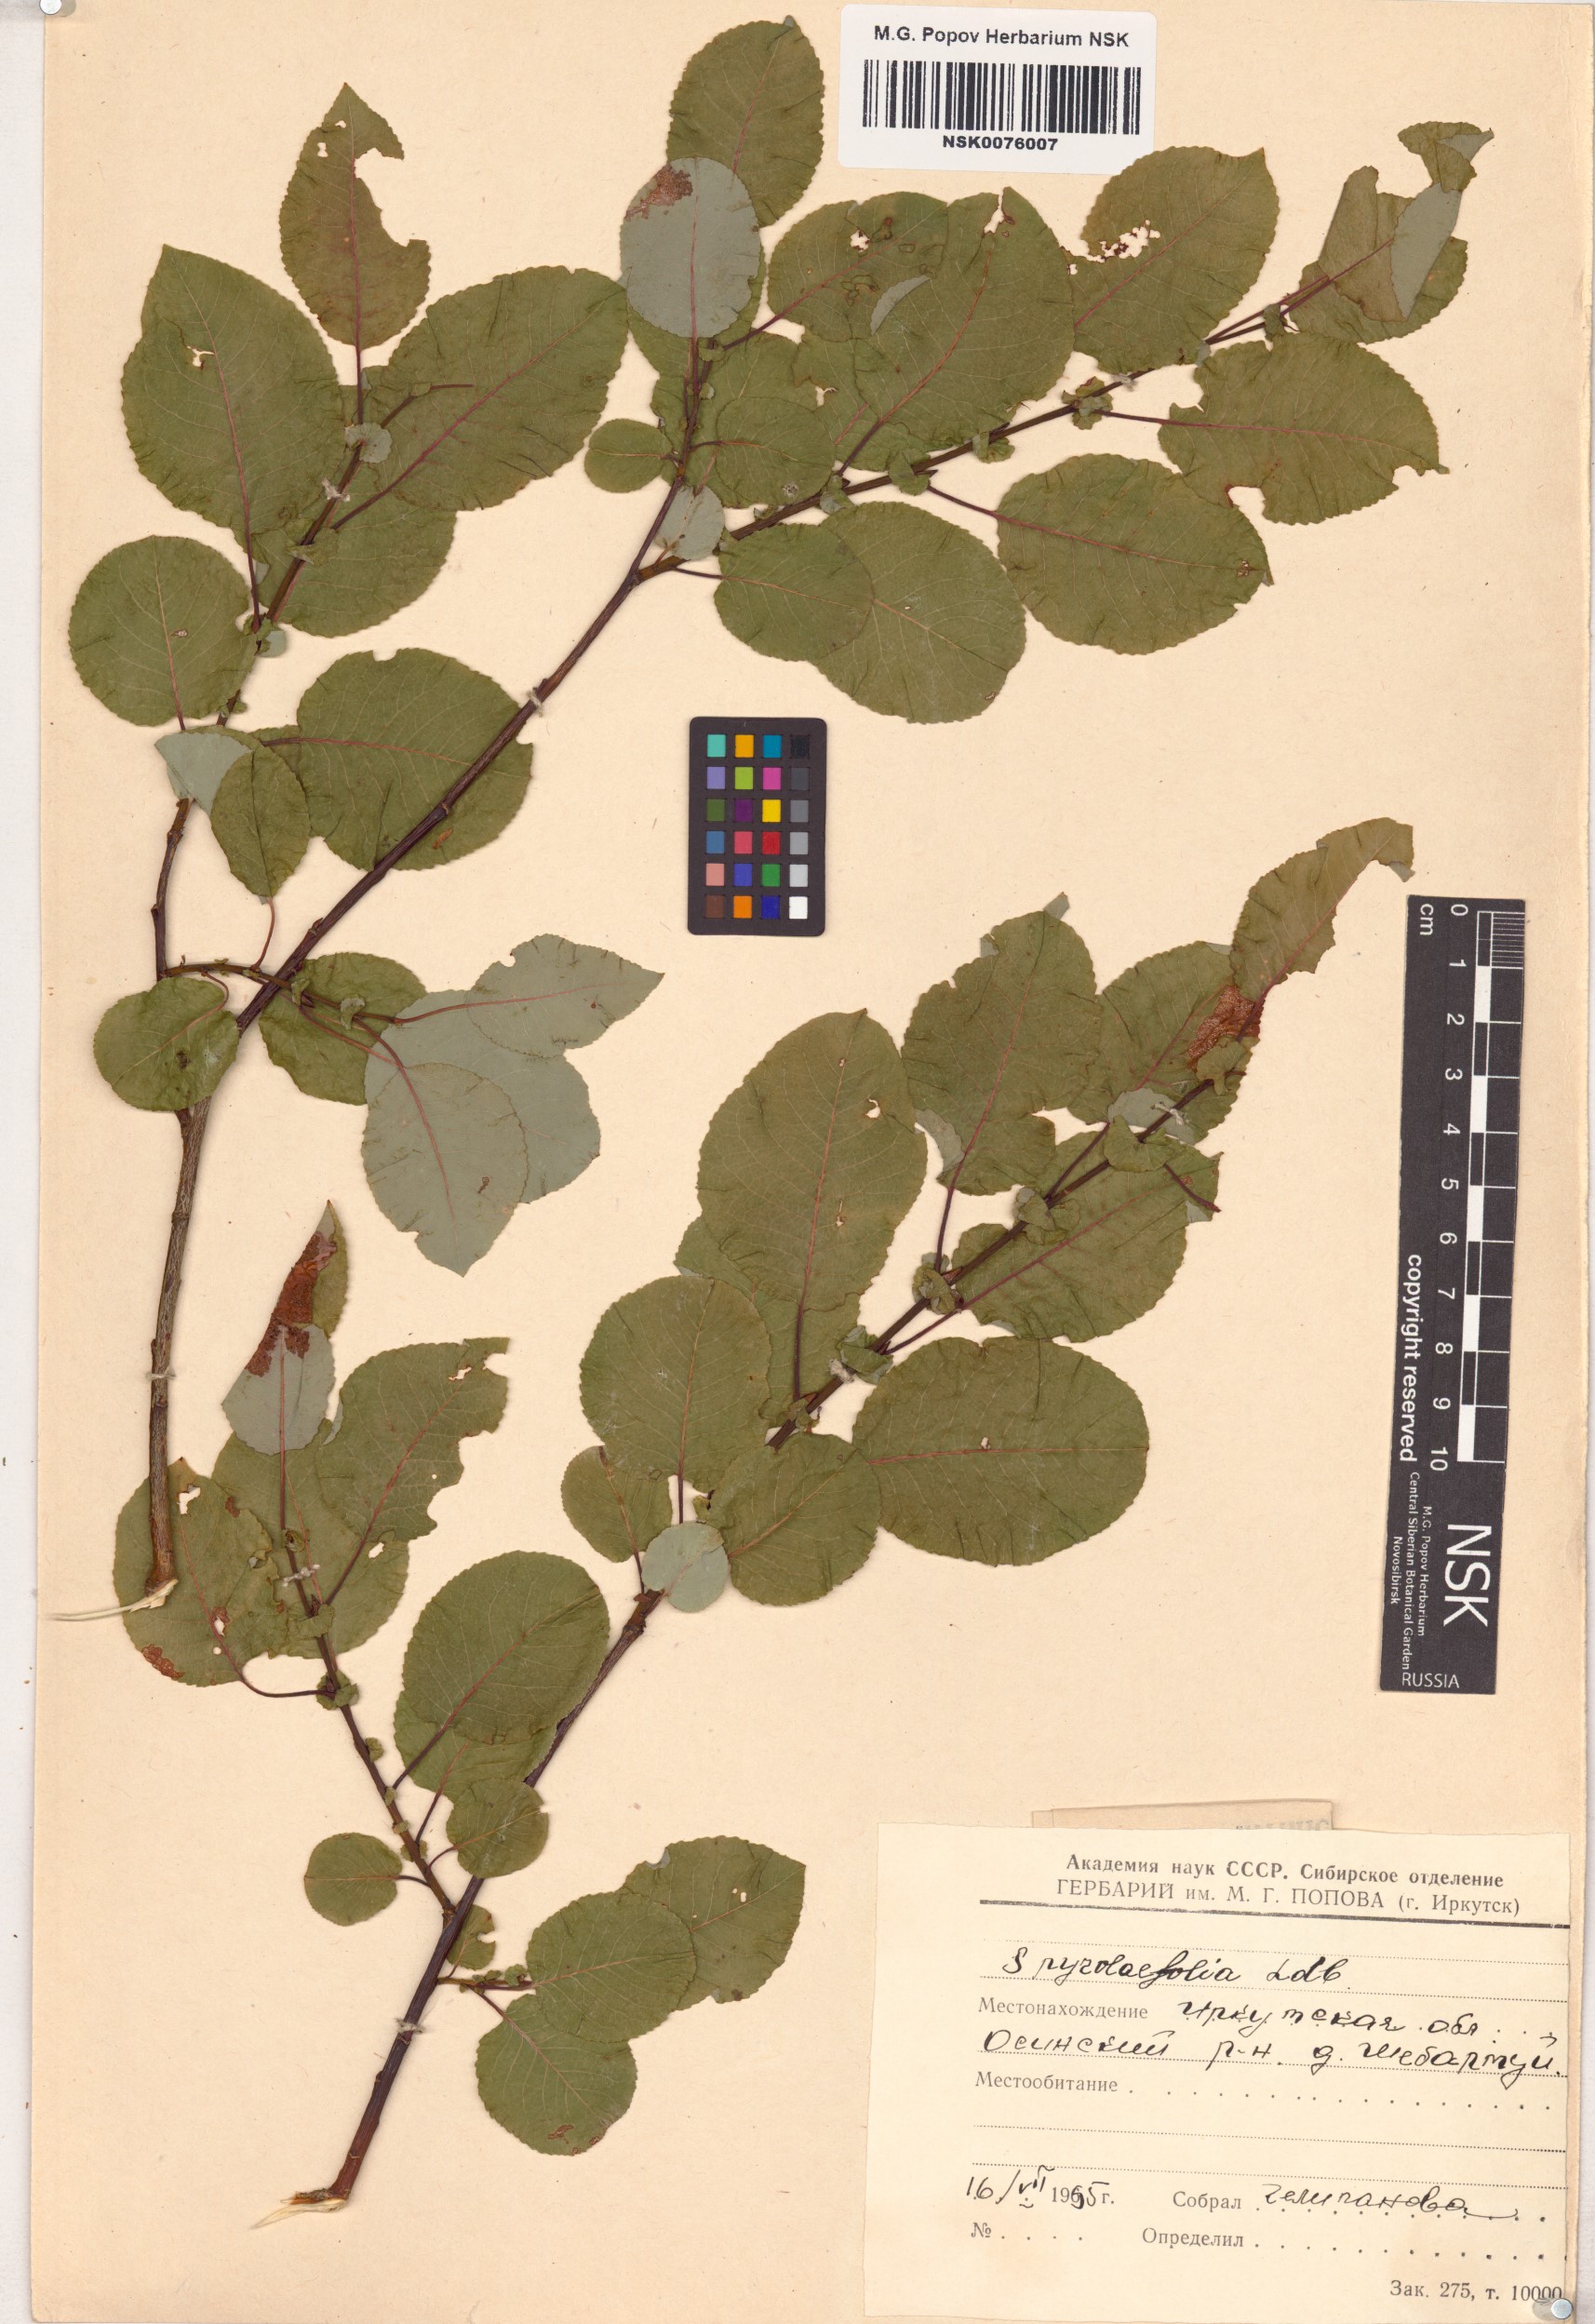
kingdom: Plantae
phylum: Tracheophyta
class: Magnoliopsida
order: Malpighiales
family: Salicaceae
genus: Salix
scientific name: Salix pyrolifolia
